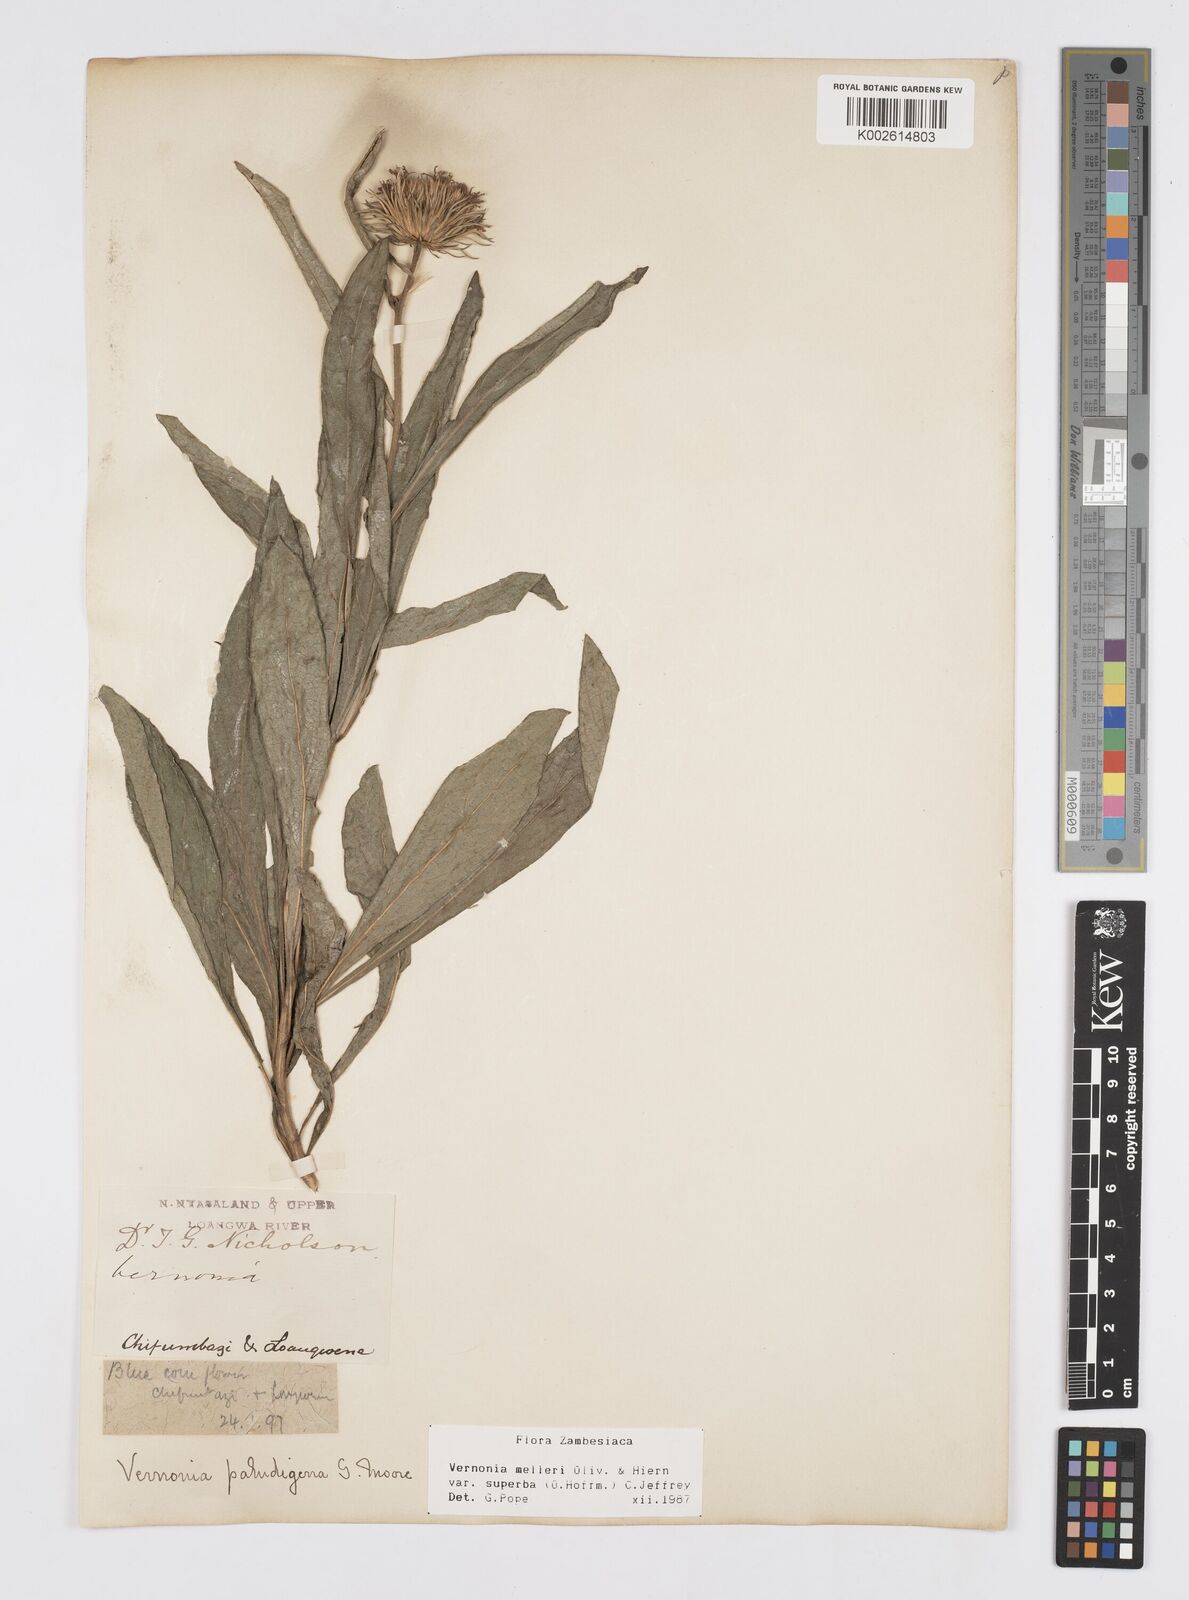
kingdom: Plantae
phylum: Tracheophyta
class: Magnoliopsida
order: Asterales
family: Asteraceae
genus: Linzia
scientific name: Linzia melleri
